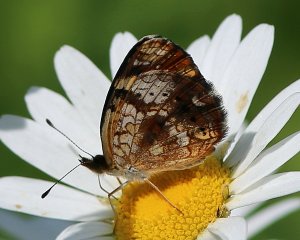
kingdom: Animalia
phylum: Arthropoda
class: Insecta
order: Lepidoptera
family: Nymphalidae
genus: Phyciodes
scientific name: Phyciodes tharos
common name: Pearl Crescent
